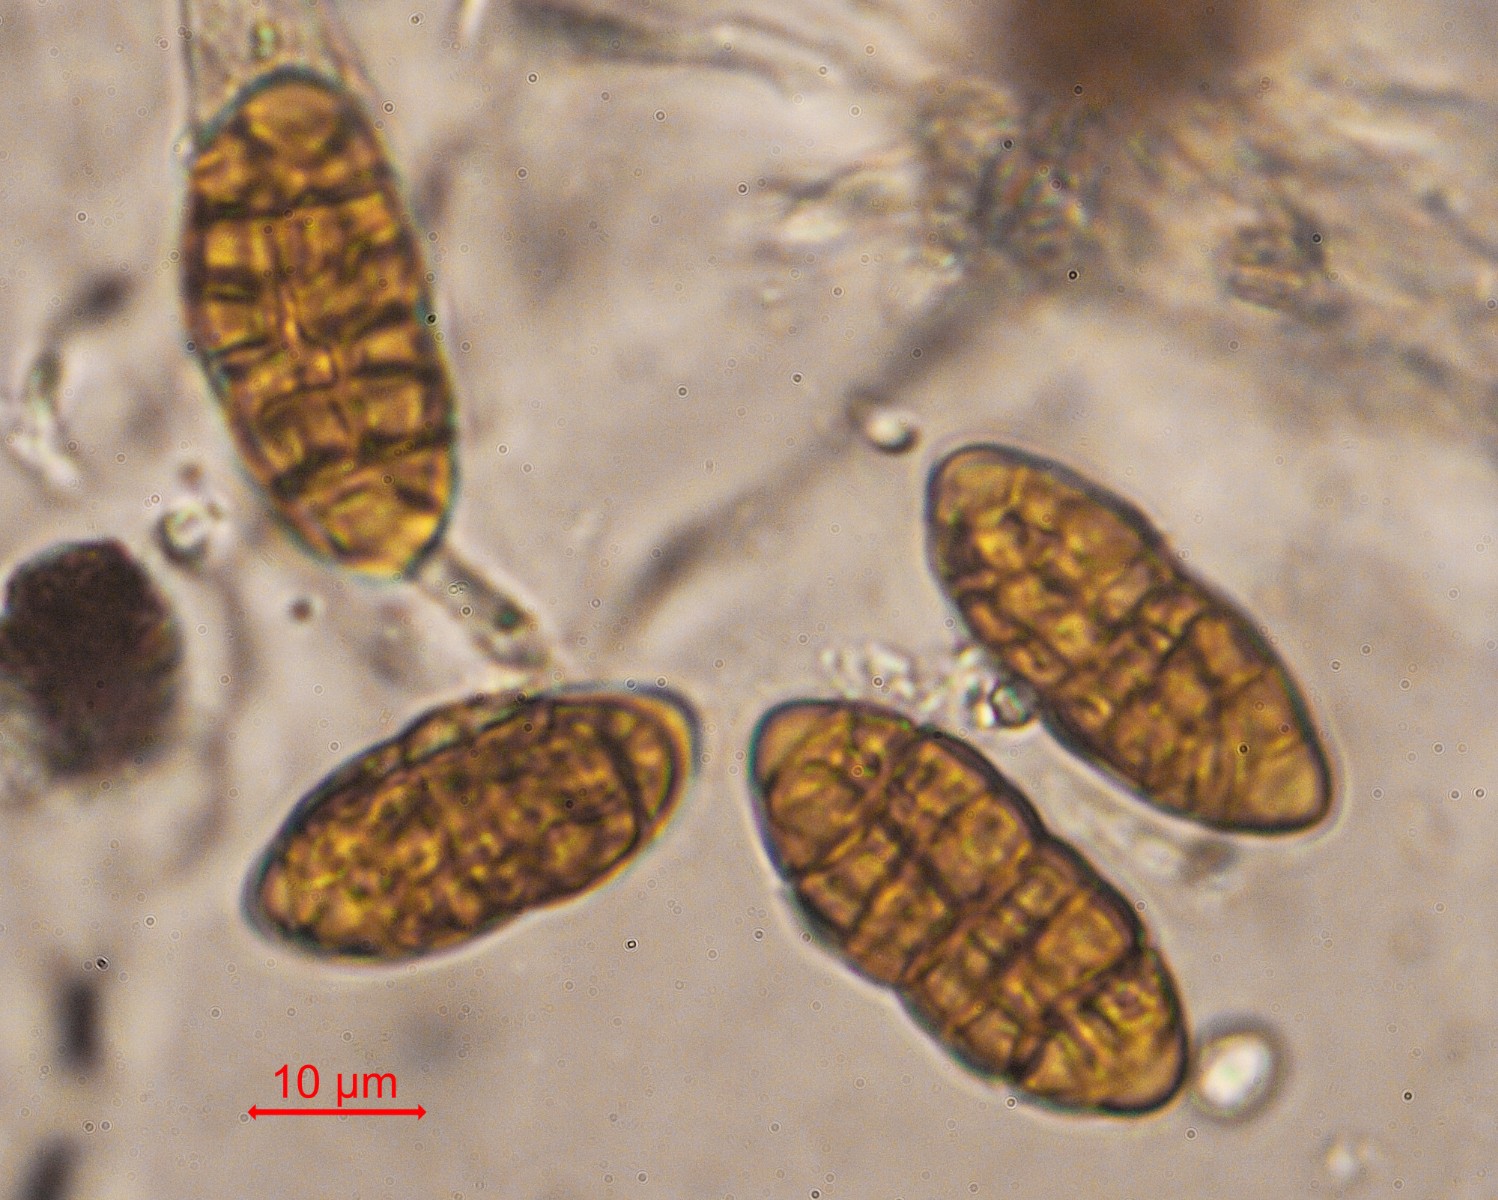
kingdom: Fungi
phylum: Ascomycota
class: Dothideomycetes
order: Pleosporales
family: Cucurbitariaceae
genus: Cucurbitaria
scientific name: Cucurbitaria
